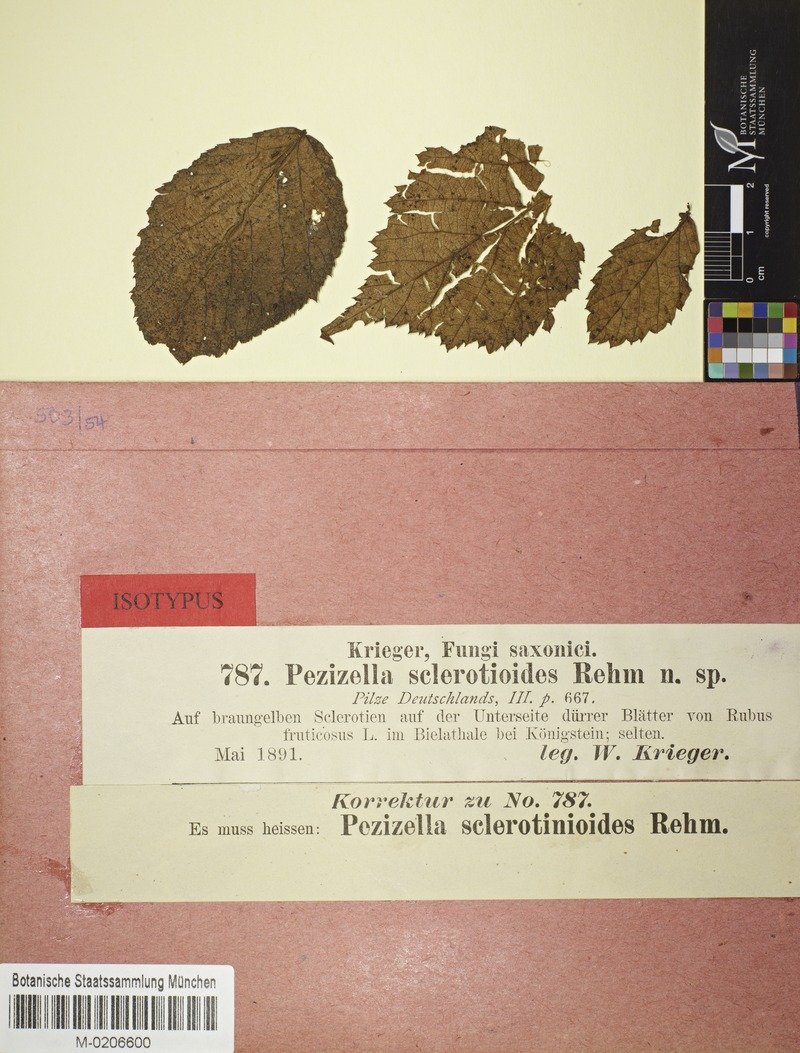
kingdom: Fungi
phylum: Ascomycota
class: Leotiomycetes
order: Helotiales
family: Drepanopezizaceae
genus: Pseudopeziza
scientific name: Pseudopeziza sclerotinioides
